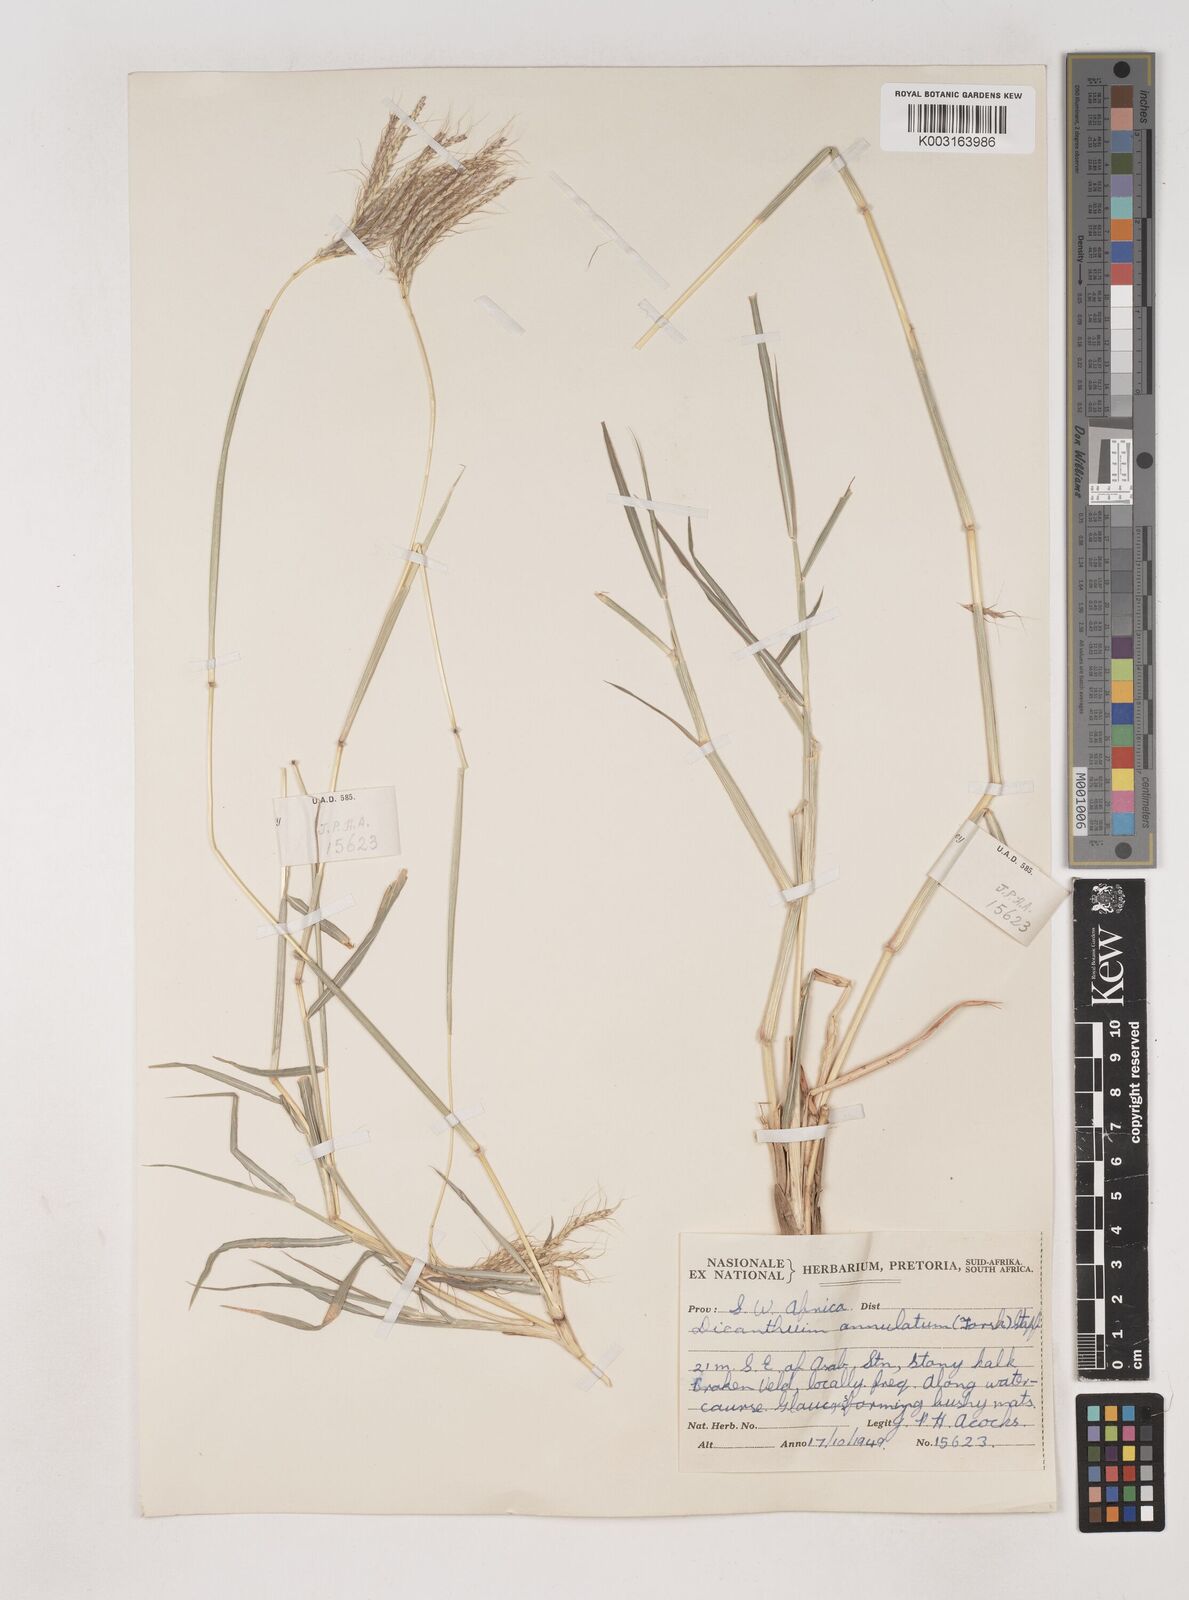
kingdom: Plantae
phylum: Tracheophyta
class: Liliopsida
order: Poales
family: Poaceae
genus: Dichanthium
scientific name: Dichanthium annulatum
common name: Kleberg's bluestem
